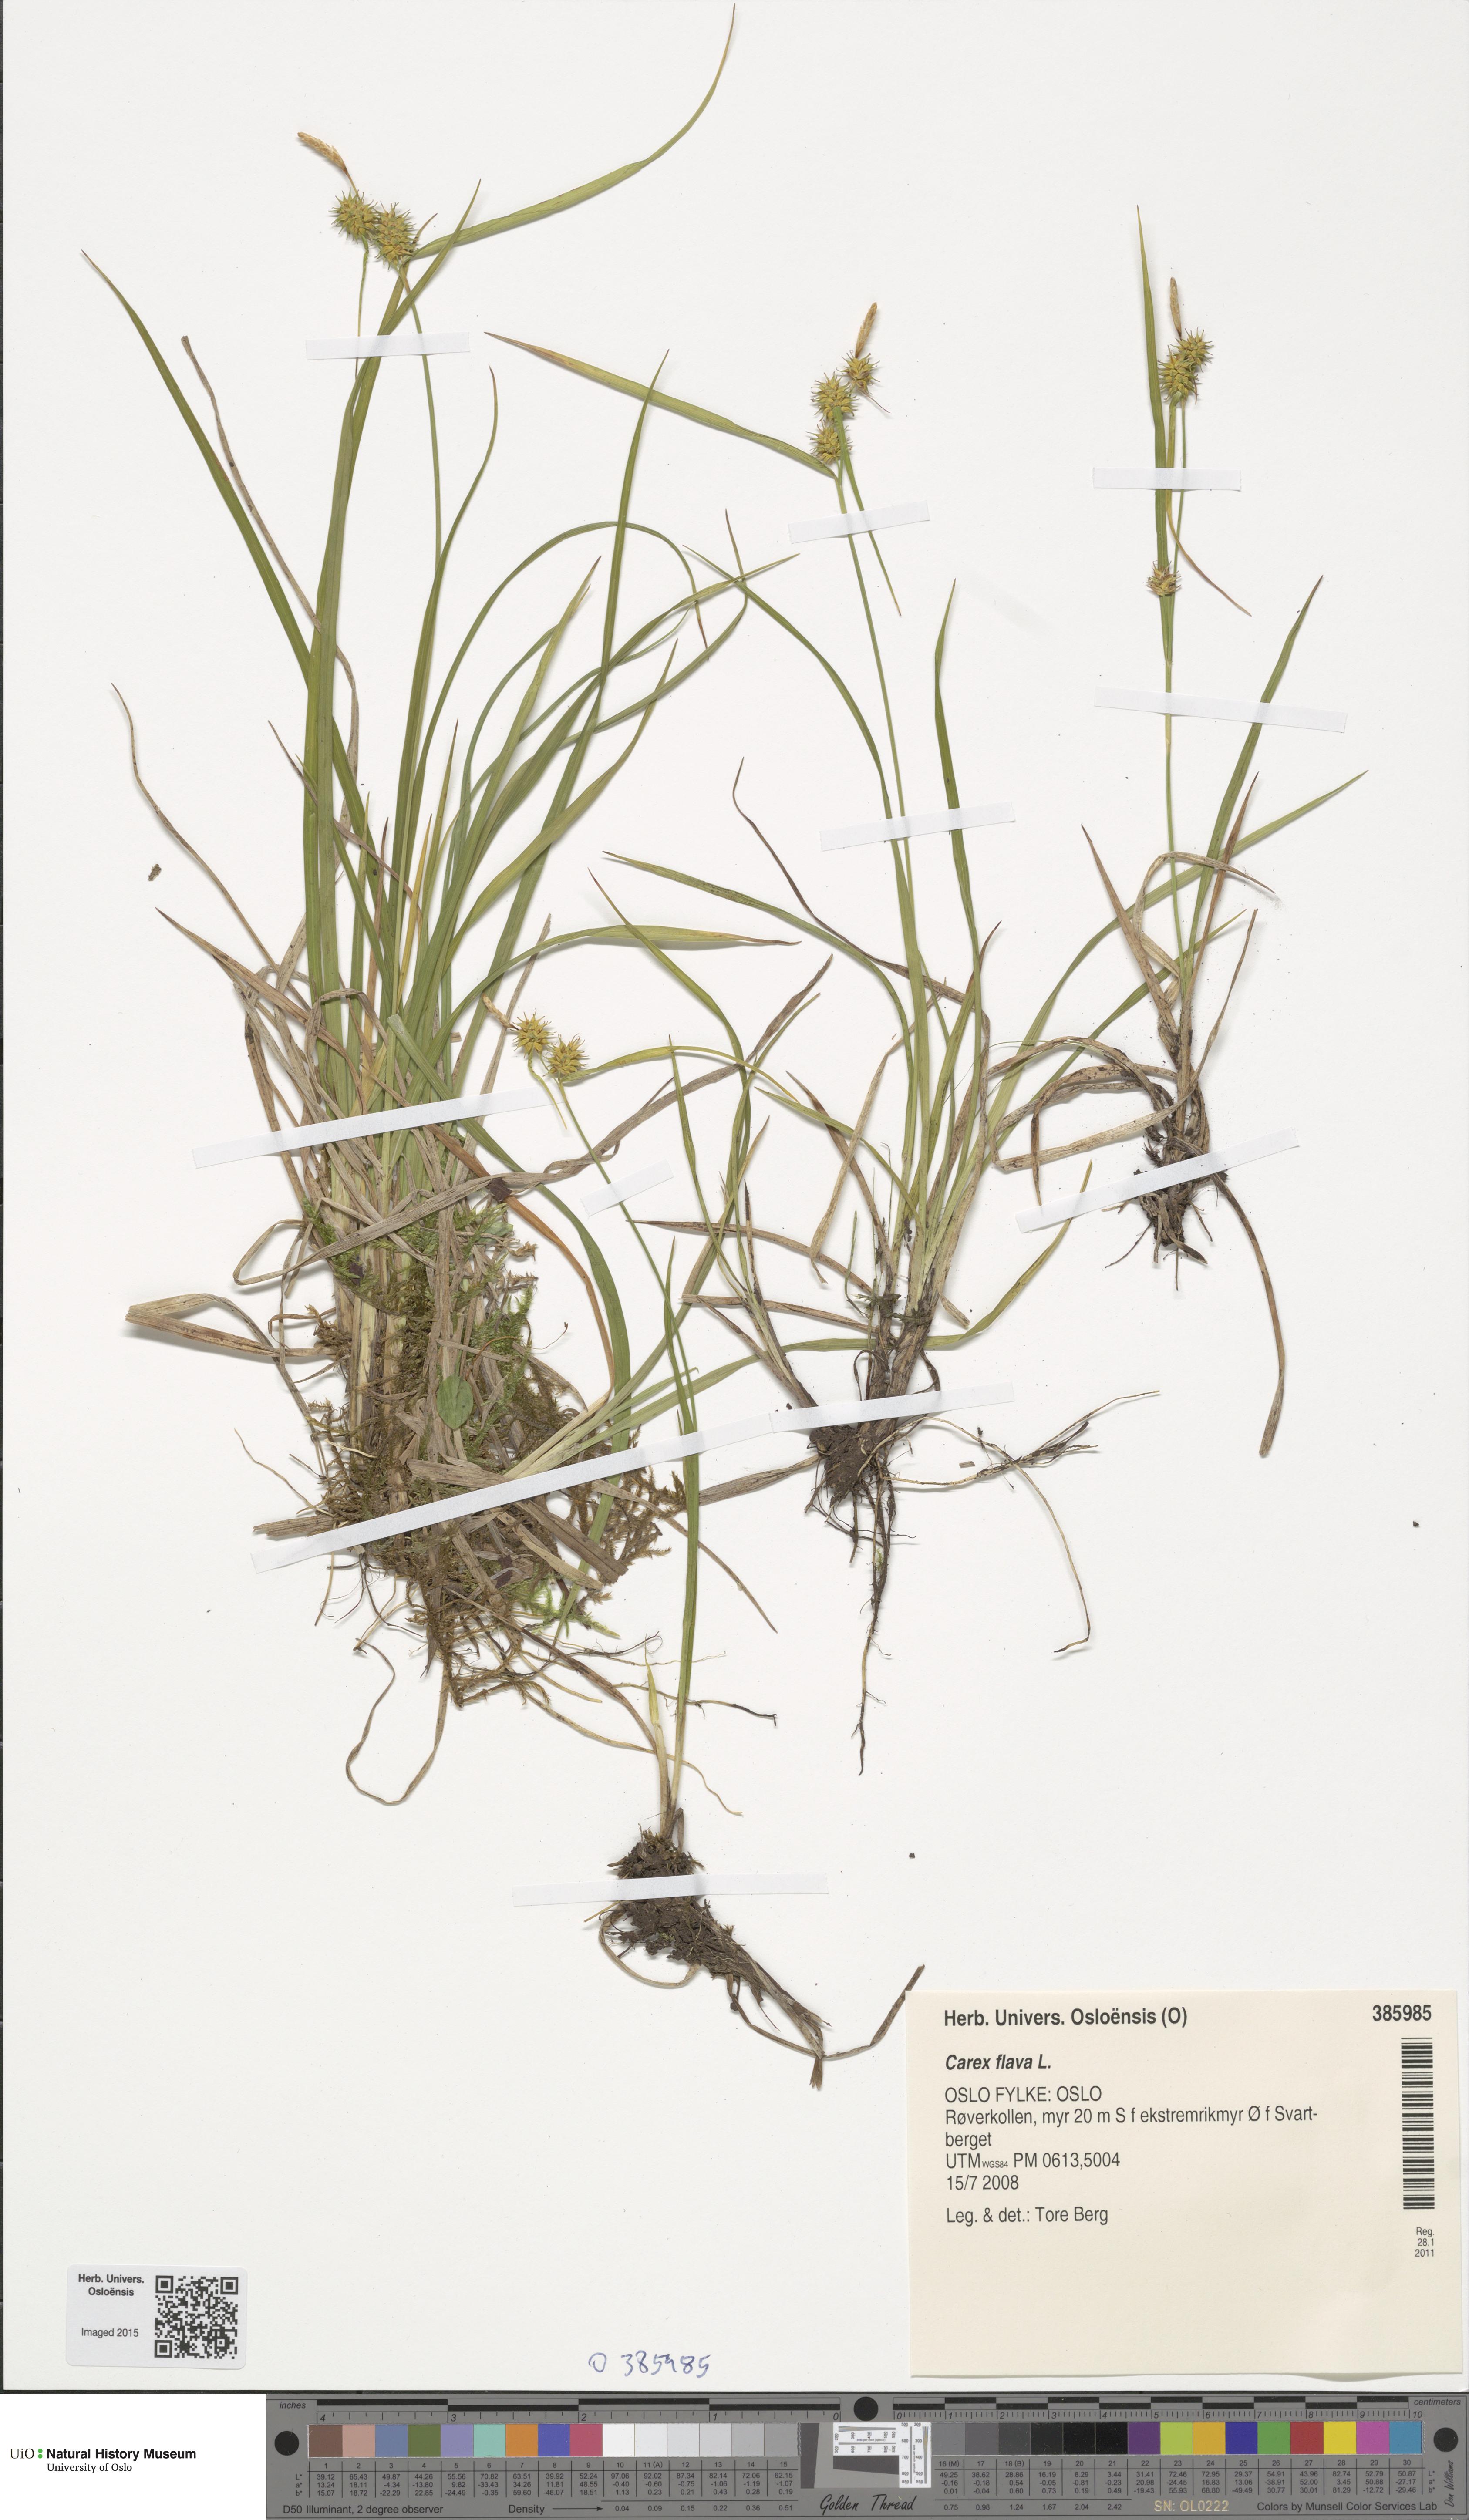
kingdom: Plantae
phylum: Tracheophyta
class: Liliopsida
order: Poales
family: Cyperaceae
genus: Carex
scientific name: Carex flava
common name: Large yellow-sedge
